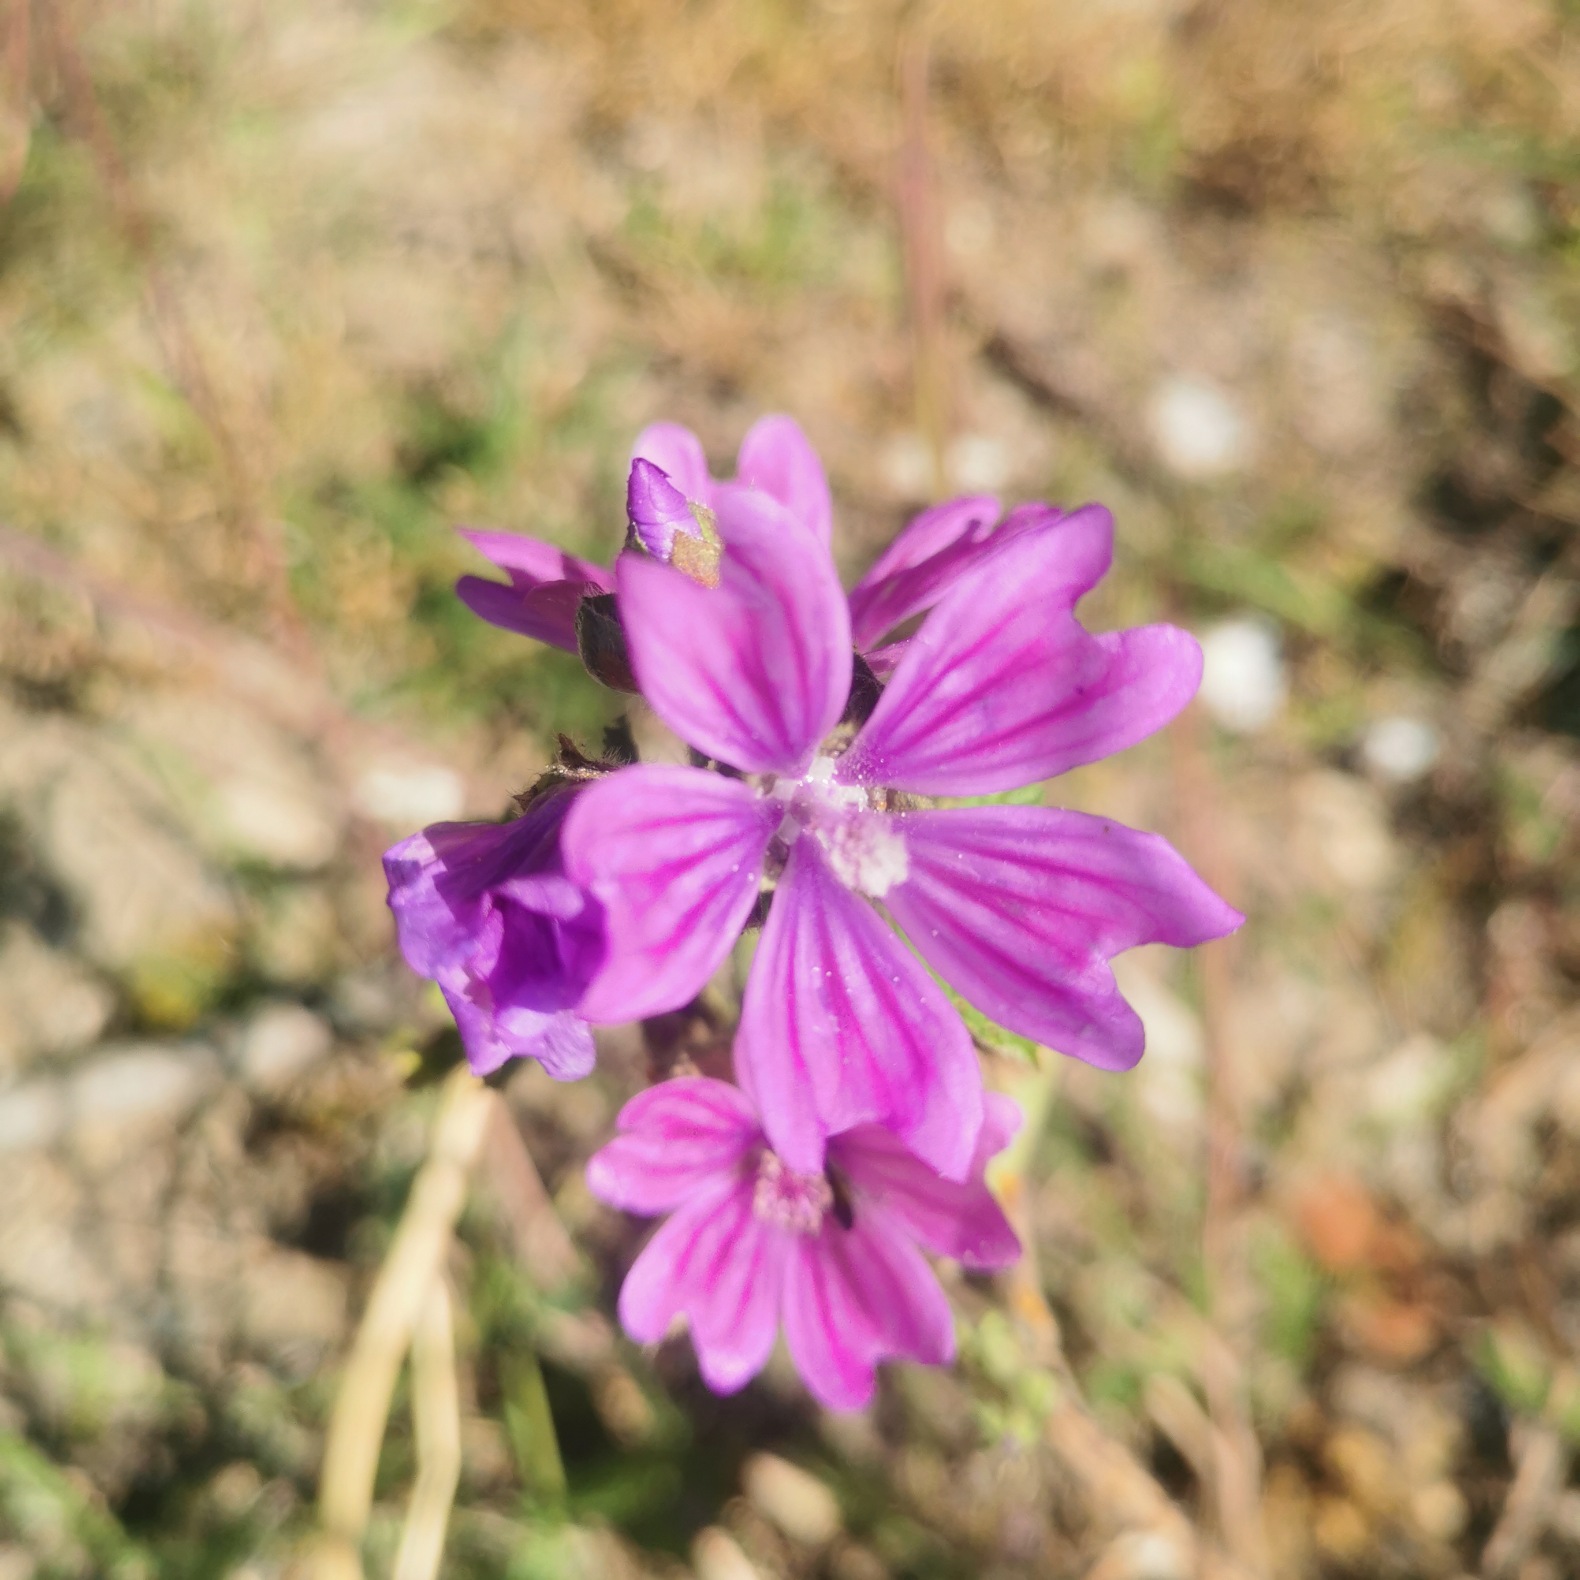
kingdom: Plantae
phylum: Tracheophyta
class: Magnoliopsida
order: Malvales
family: Malvaceae
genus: Malva
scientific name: Malva sylvestris
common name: Almindelig katost
